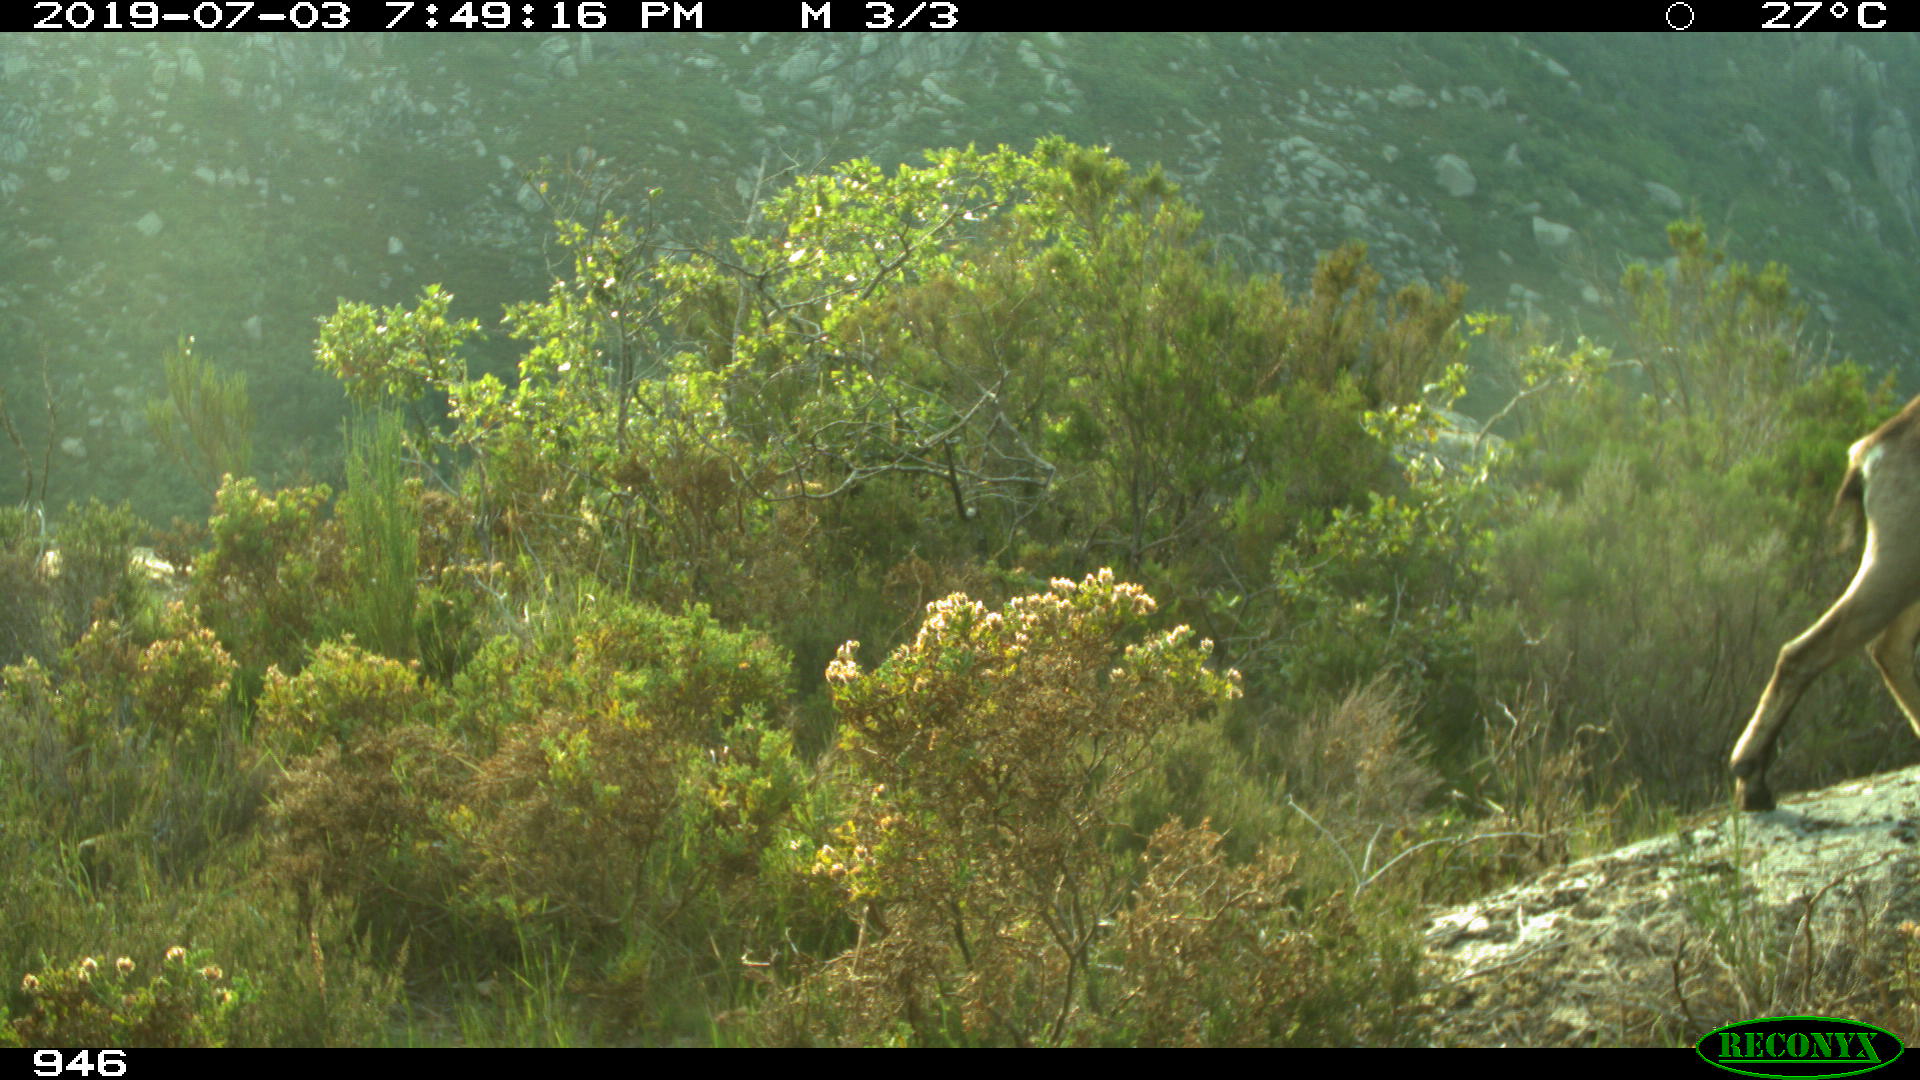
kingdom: Animalia
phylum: Chordata
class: Mammalia
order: Artiodactyla
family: Bovidae
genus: Capra
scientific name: Capra pyrenaica
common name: Spanish ibex
